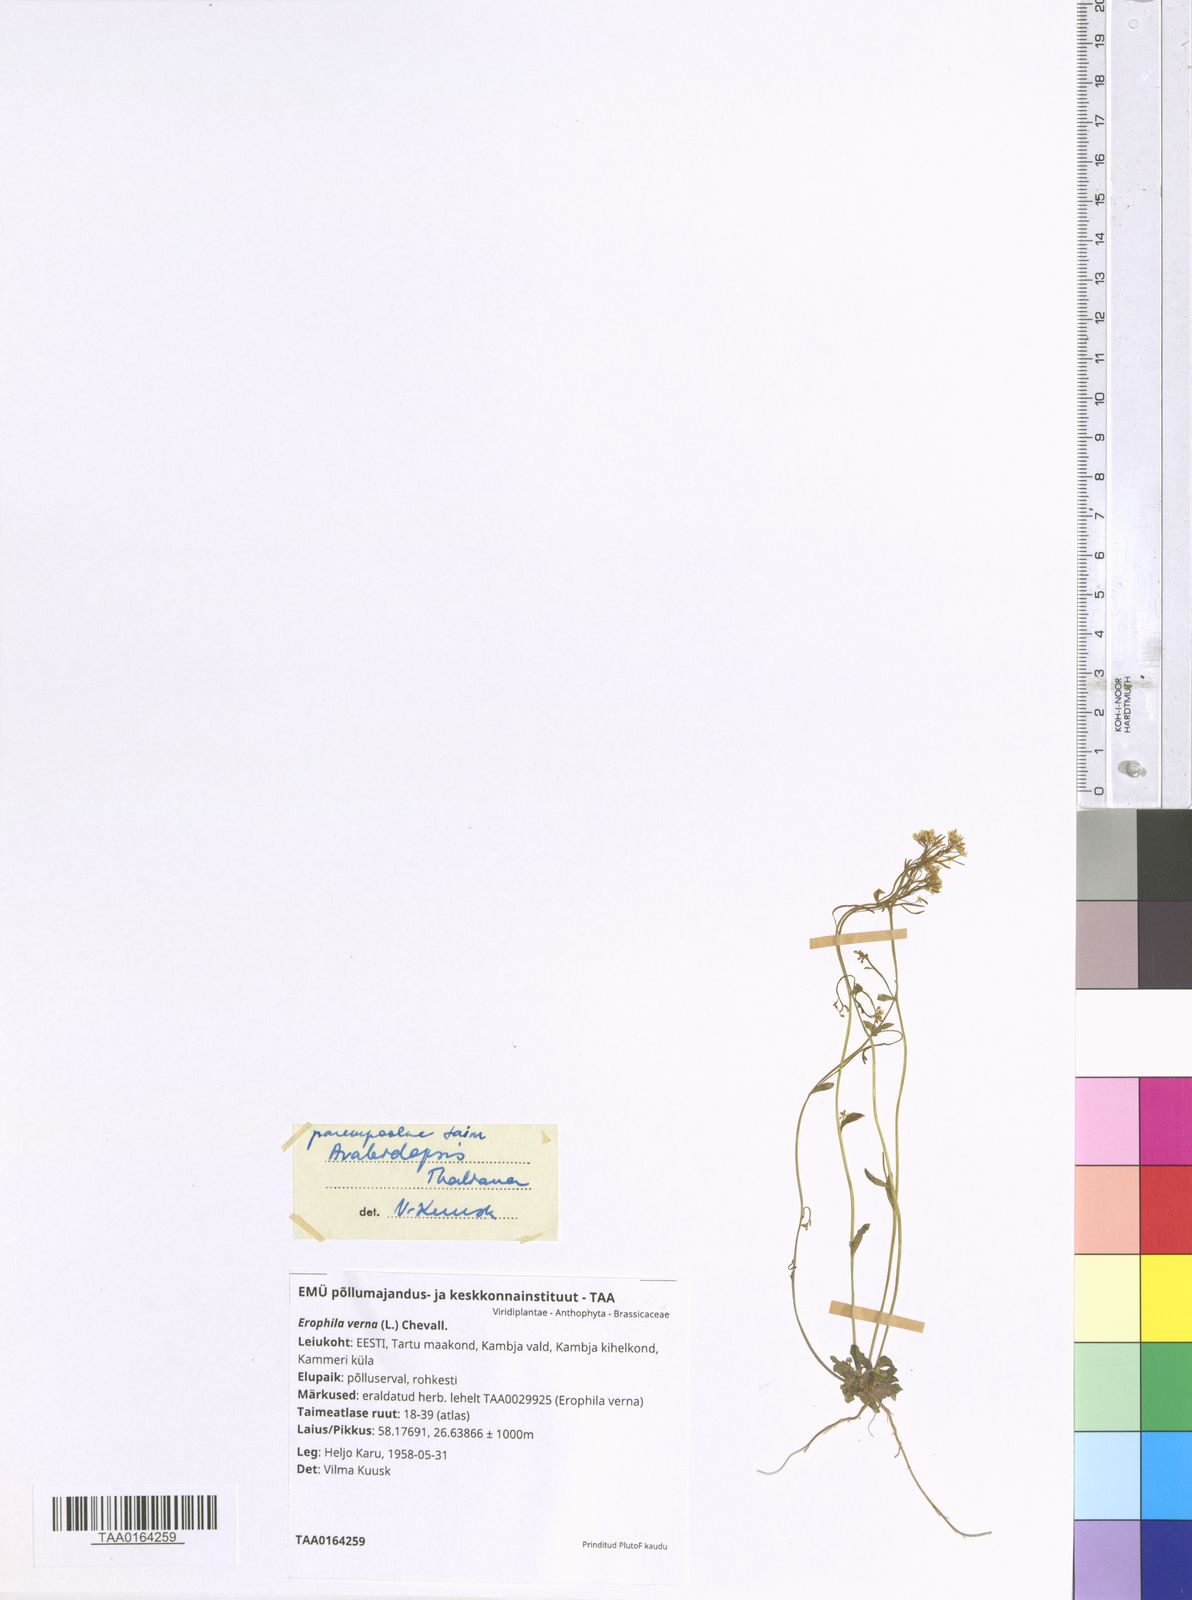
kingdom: Plantae
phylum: Tracheophyta
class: Magnoliopsida
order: Brassicales
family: Brassicaceae
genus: Draba
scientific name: Draba verna
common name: Spring draba
